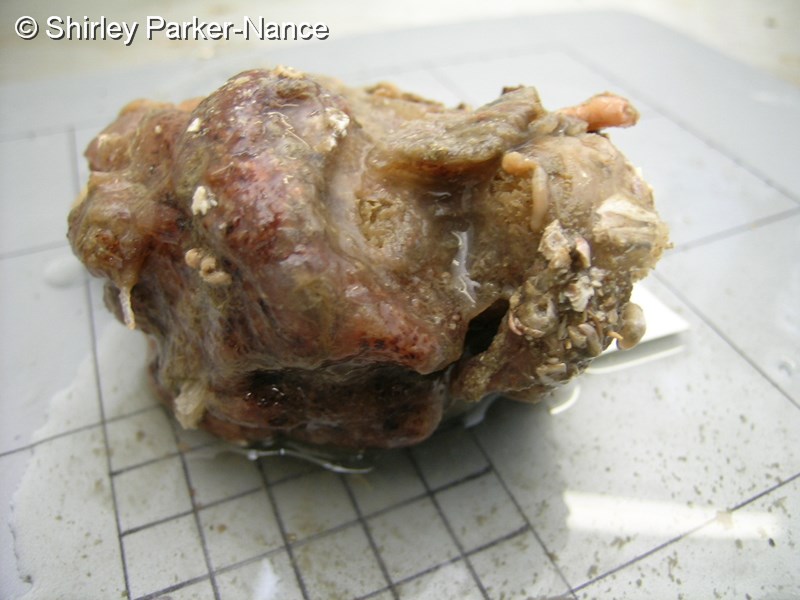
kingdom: Animalia
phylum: Chordata
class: Ascidiacea
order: Stolidobranchia
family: Styelidae
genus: Botryllus
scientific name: Botryllus
